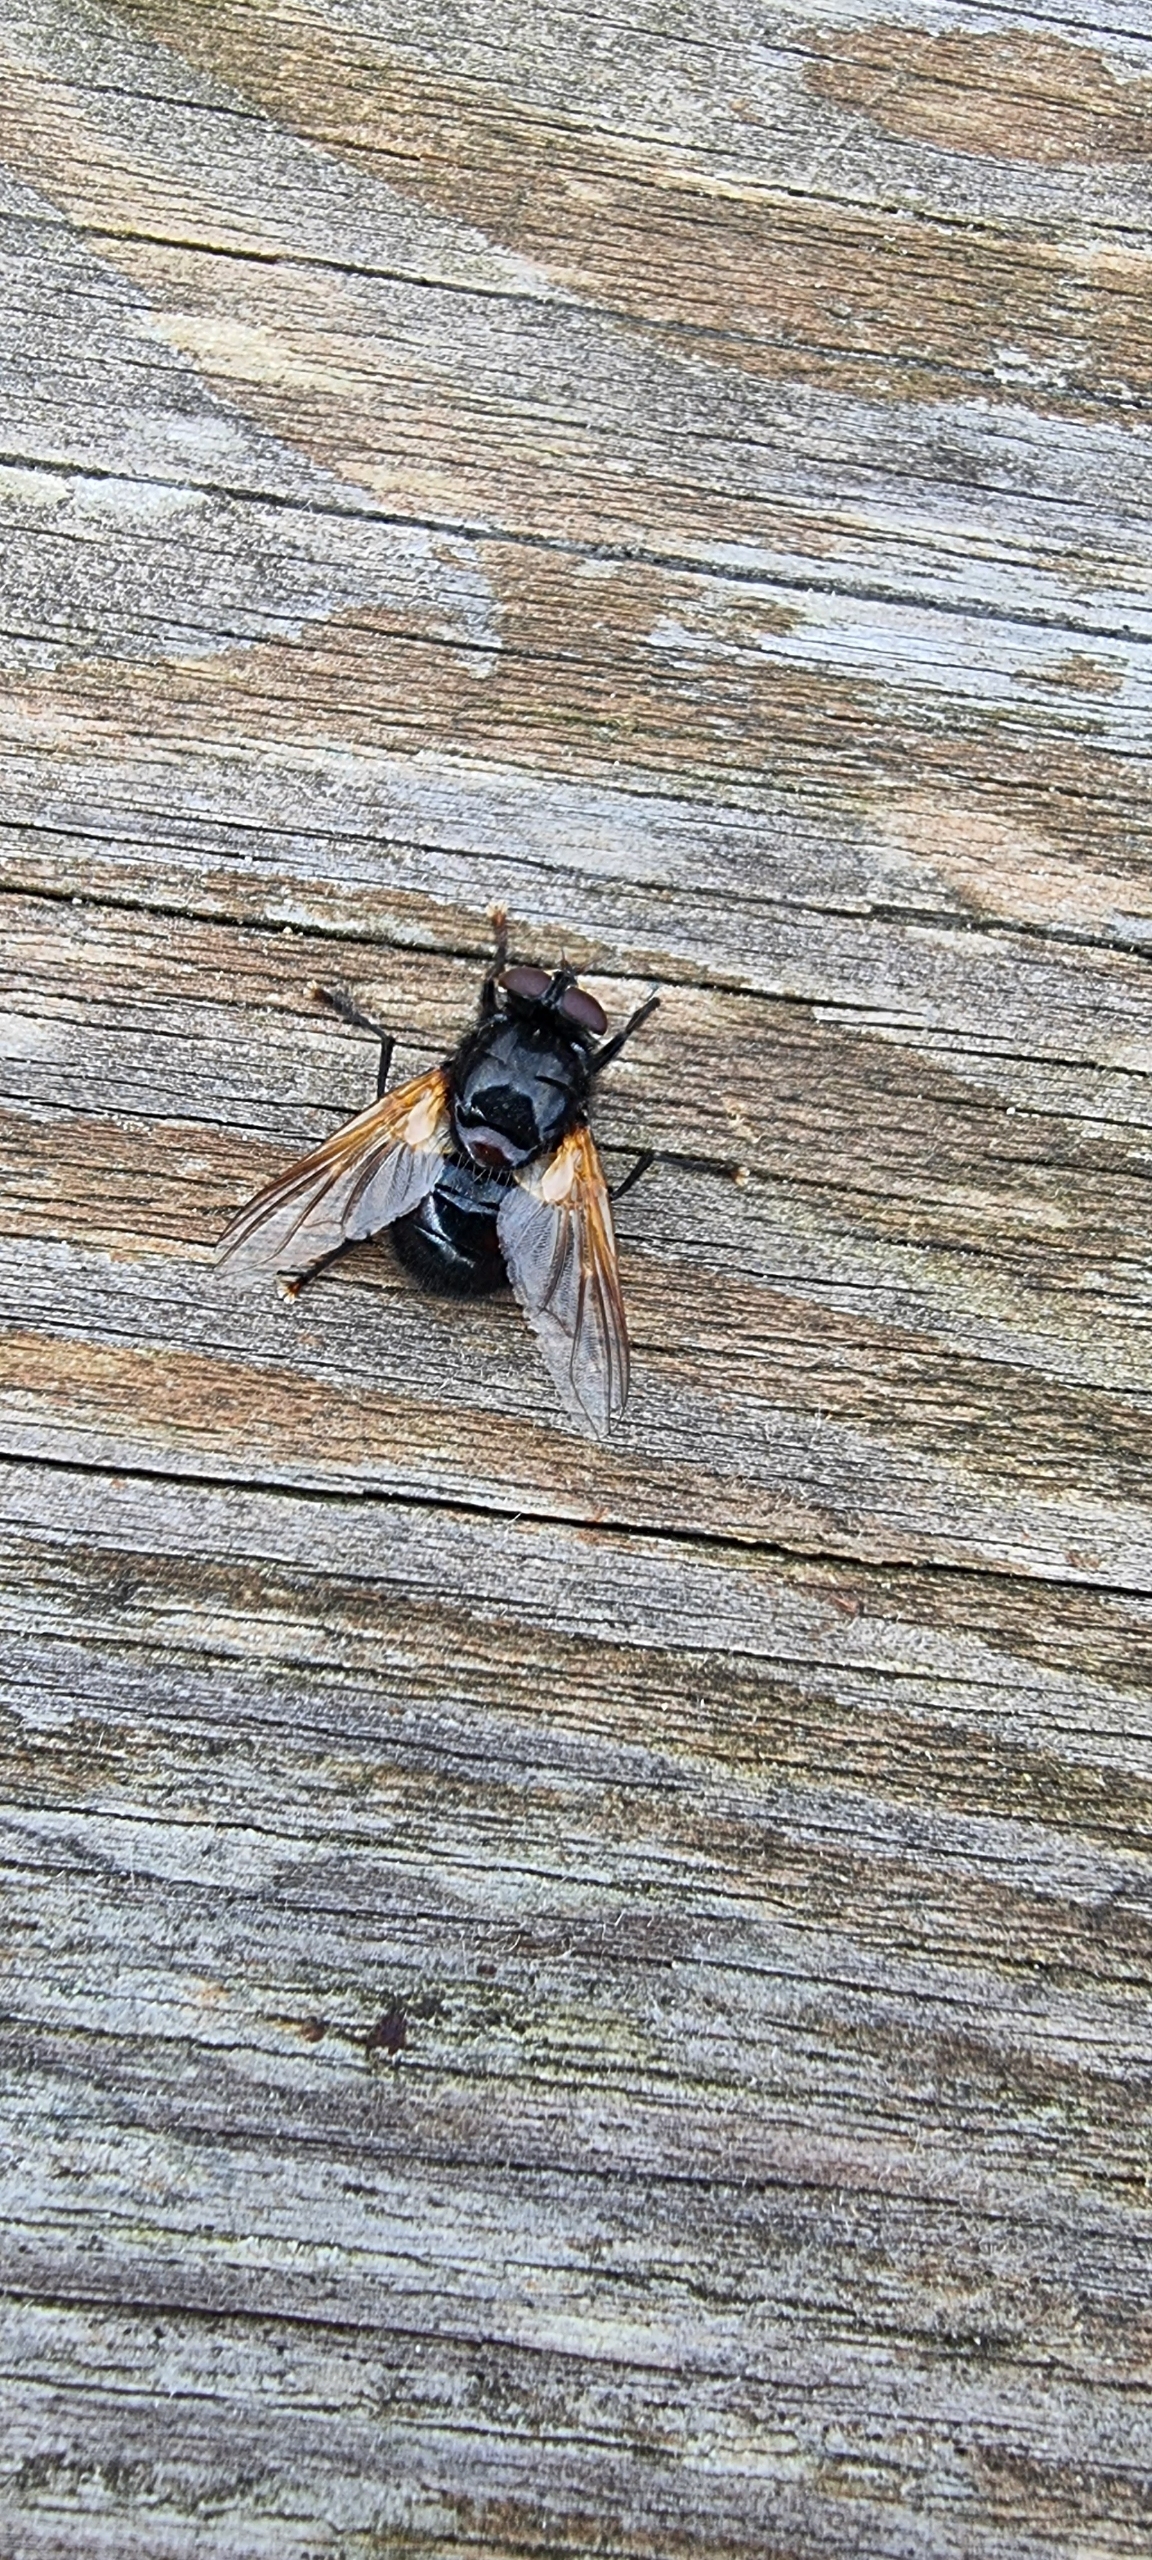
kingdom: Animalia
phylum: Arthropoda
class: Insecta
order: Diptera
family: Muscidae
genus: Mesembrina
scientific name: Mesembrina meridiana
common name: Gulvinget flue
